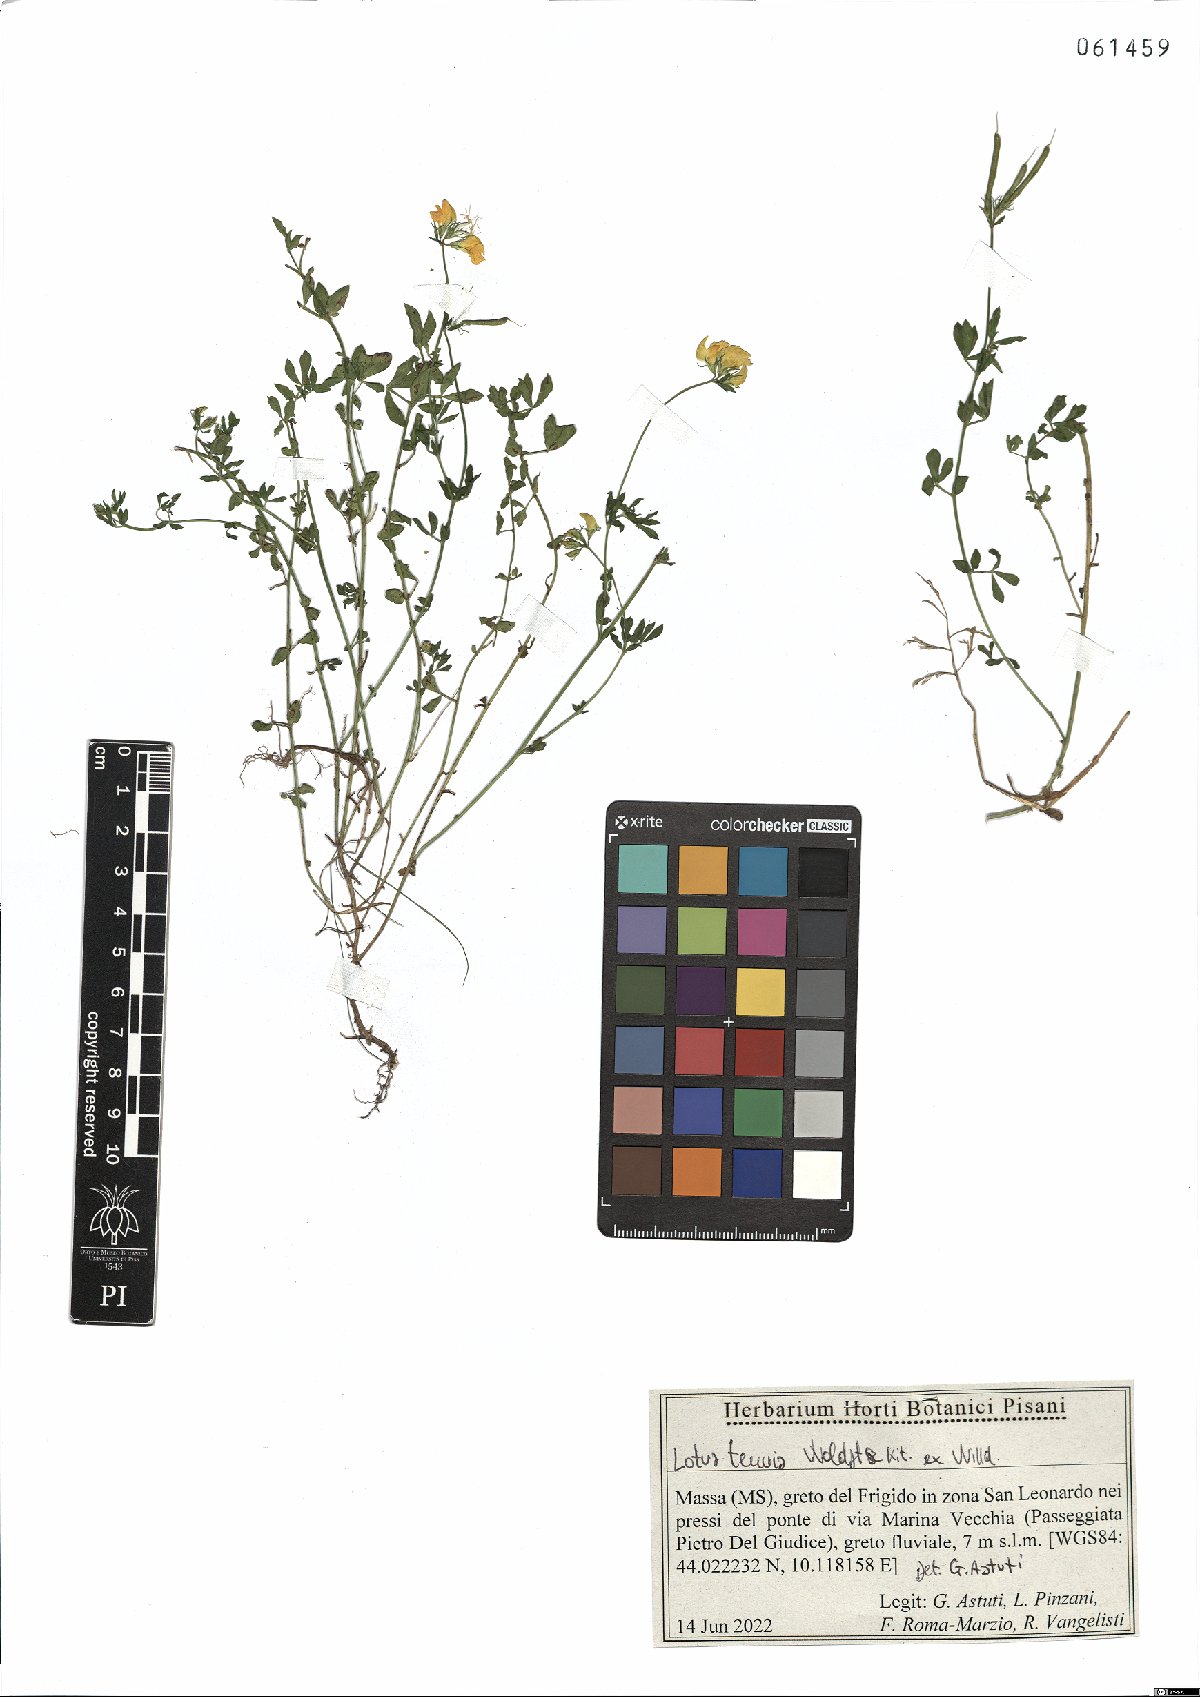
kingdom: Plantae
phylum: Tracheophyta
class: Magnoliopsida
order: Fabales
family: Fabaceae
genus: Lotus
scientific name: Lotus tenuis
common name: Narrow-leaved bird's-foot-trefoil
